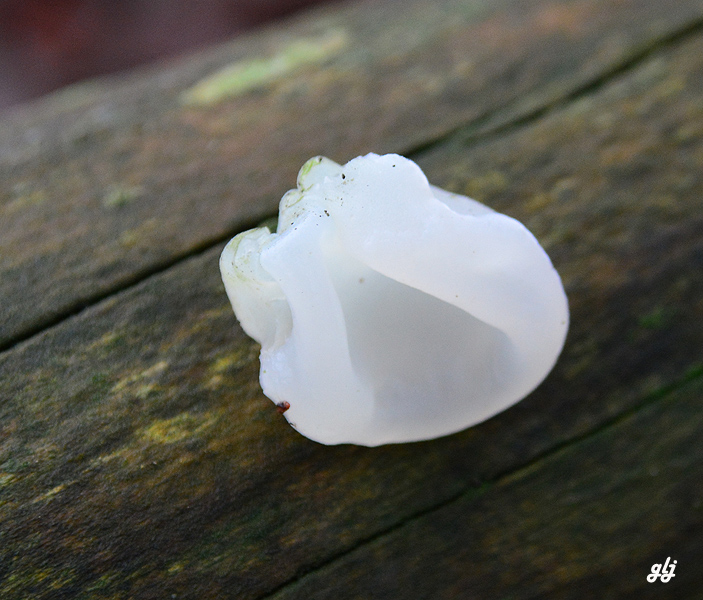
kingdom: Fungi
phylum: Basidiomycota
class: Agaricomycetes
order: Auriculariales
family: Auriculariaceae
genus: Auricularia
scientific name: Auricularia auricula-judae
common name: almindelig judasøre
